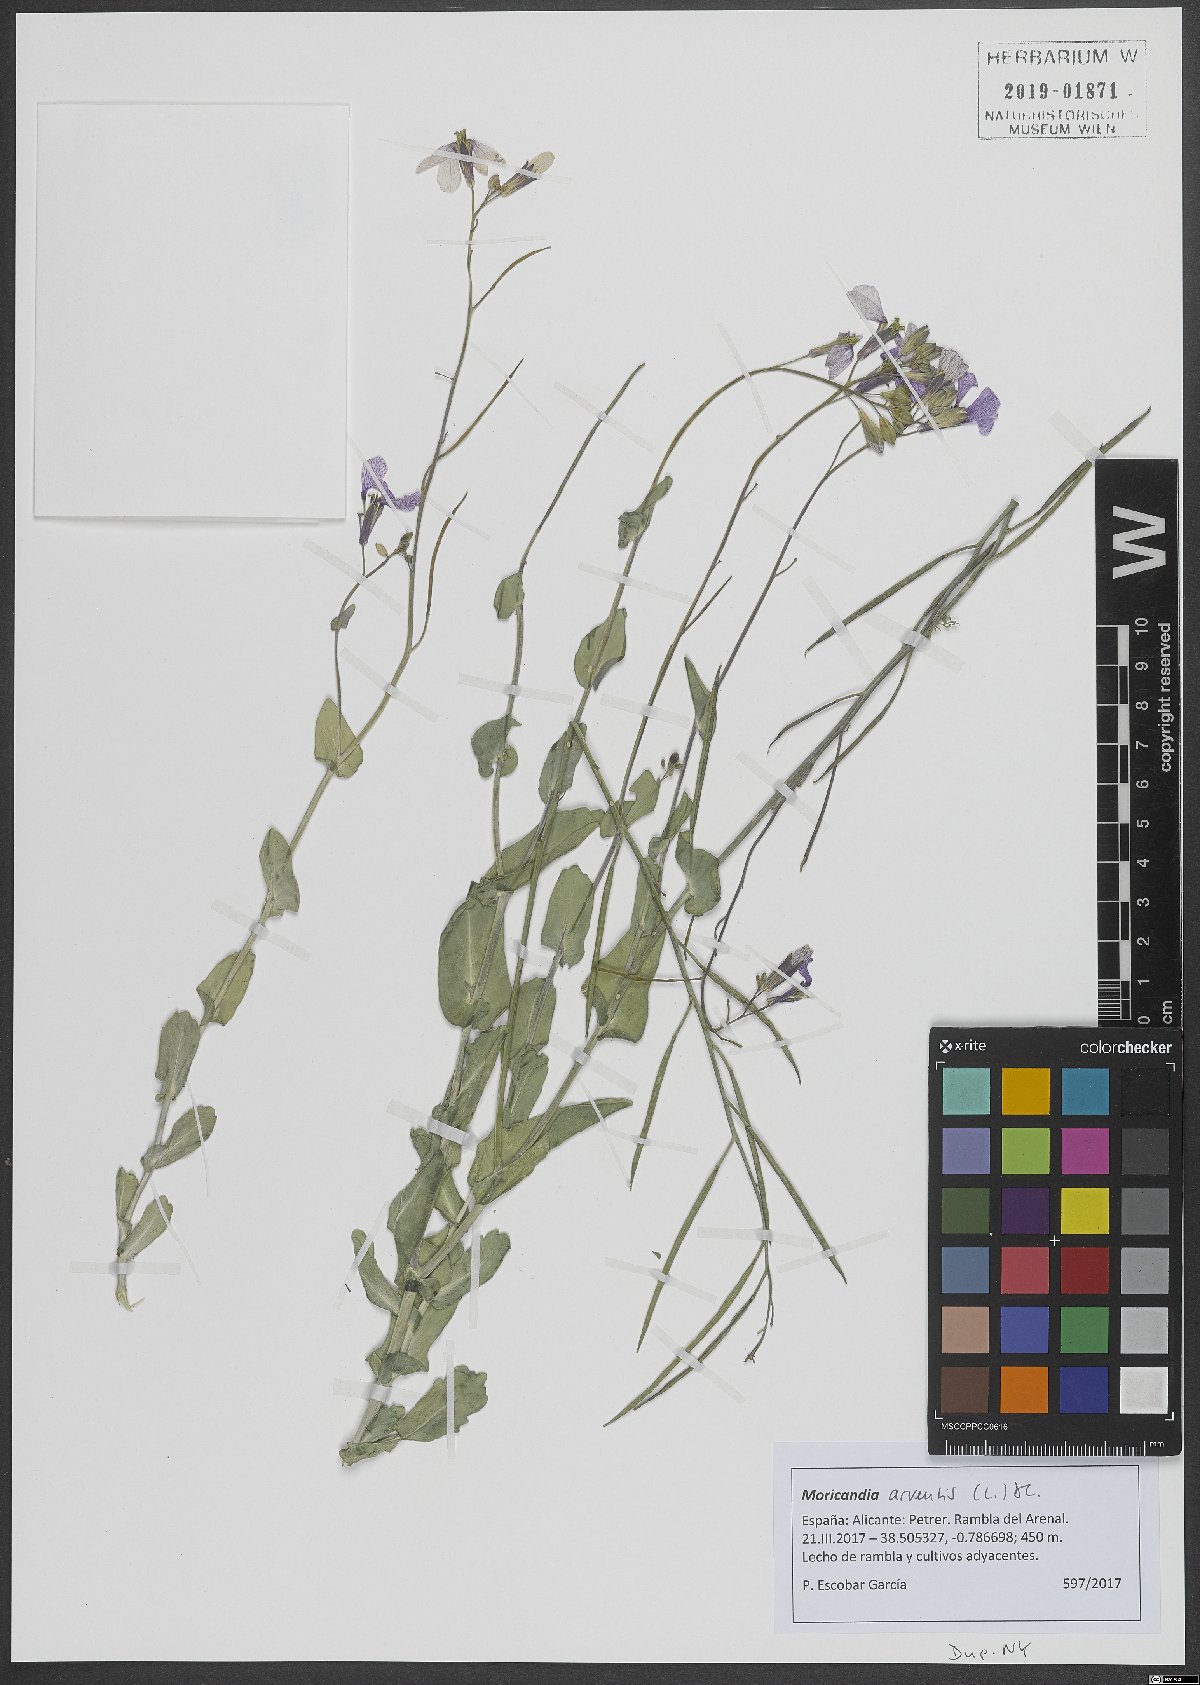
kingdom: Plantae
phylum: Tracheophyta
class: Magnoliopsida
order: Brassicales
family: Brassicaceae
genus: Moricandia
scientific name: Moricandia arvensis
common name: Purple mistress
